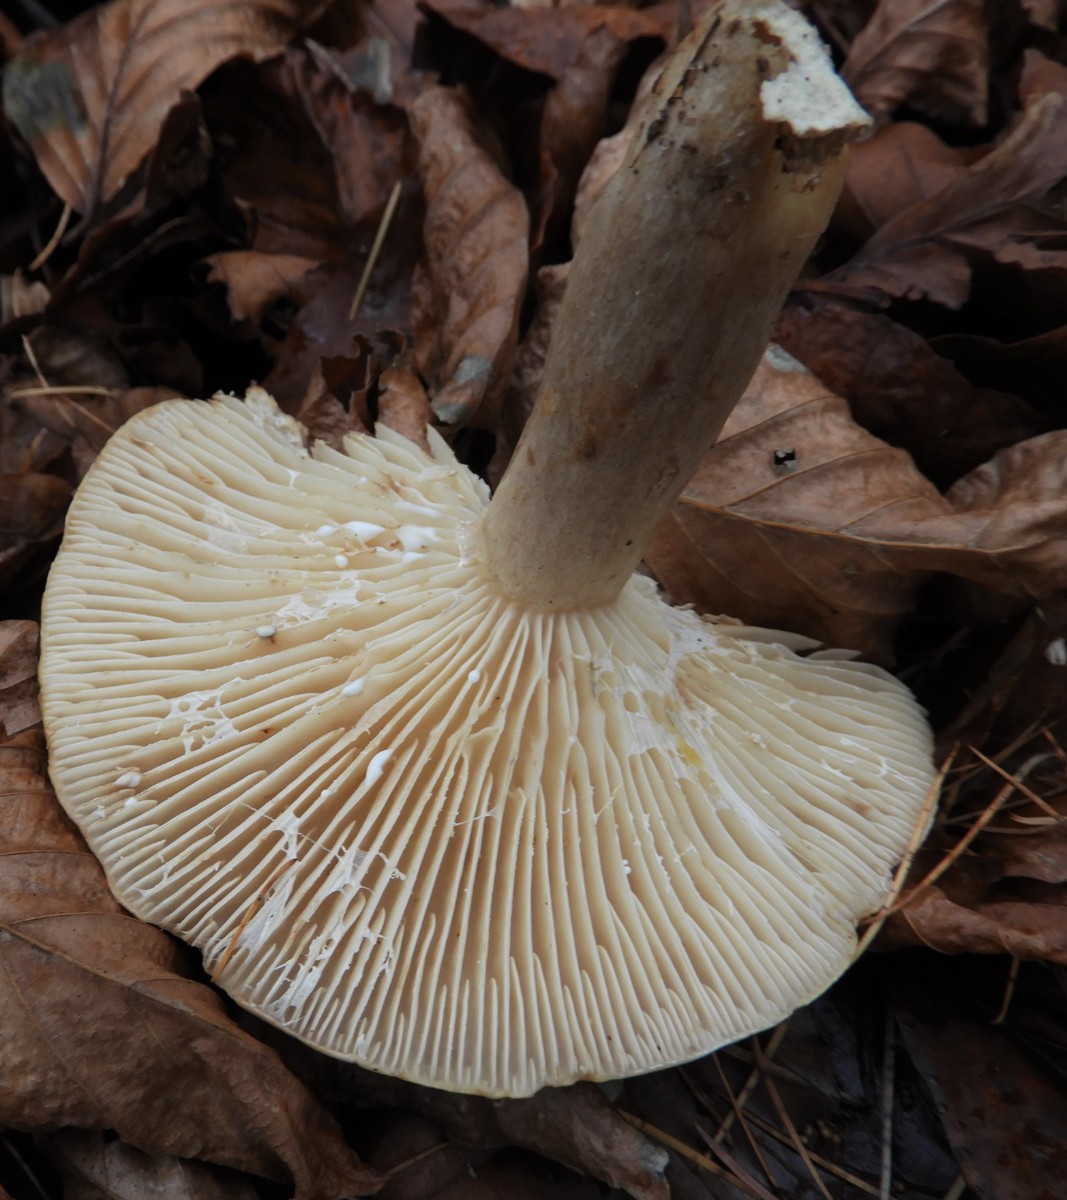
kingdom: Fungi
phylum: Basidiomycota
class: Agaricomycetes
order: Russulales
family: Russulaceae
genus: Lactarius
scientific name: Lactarius blennius
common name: dråbeplettet mælkehat
